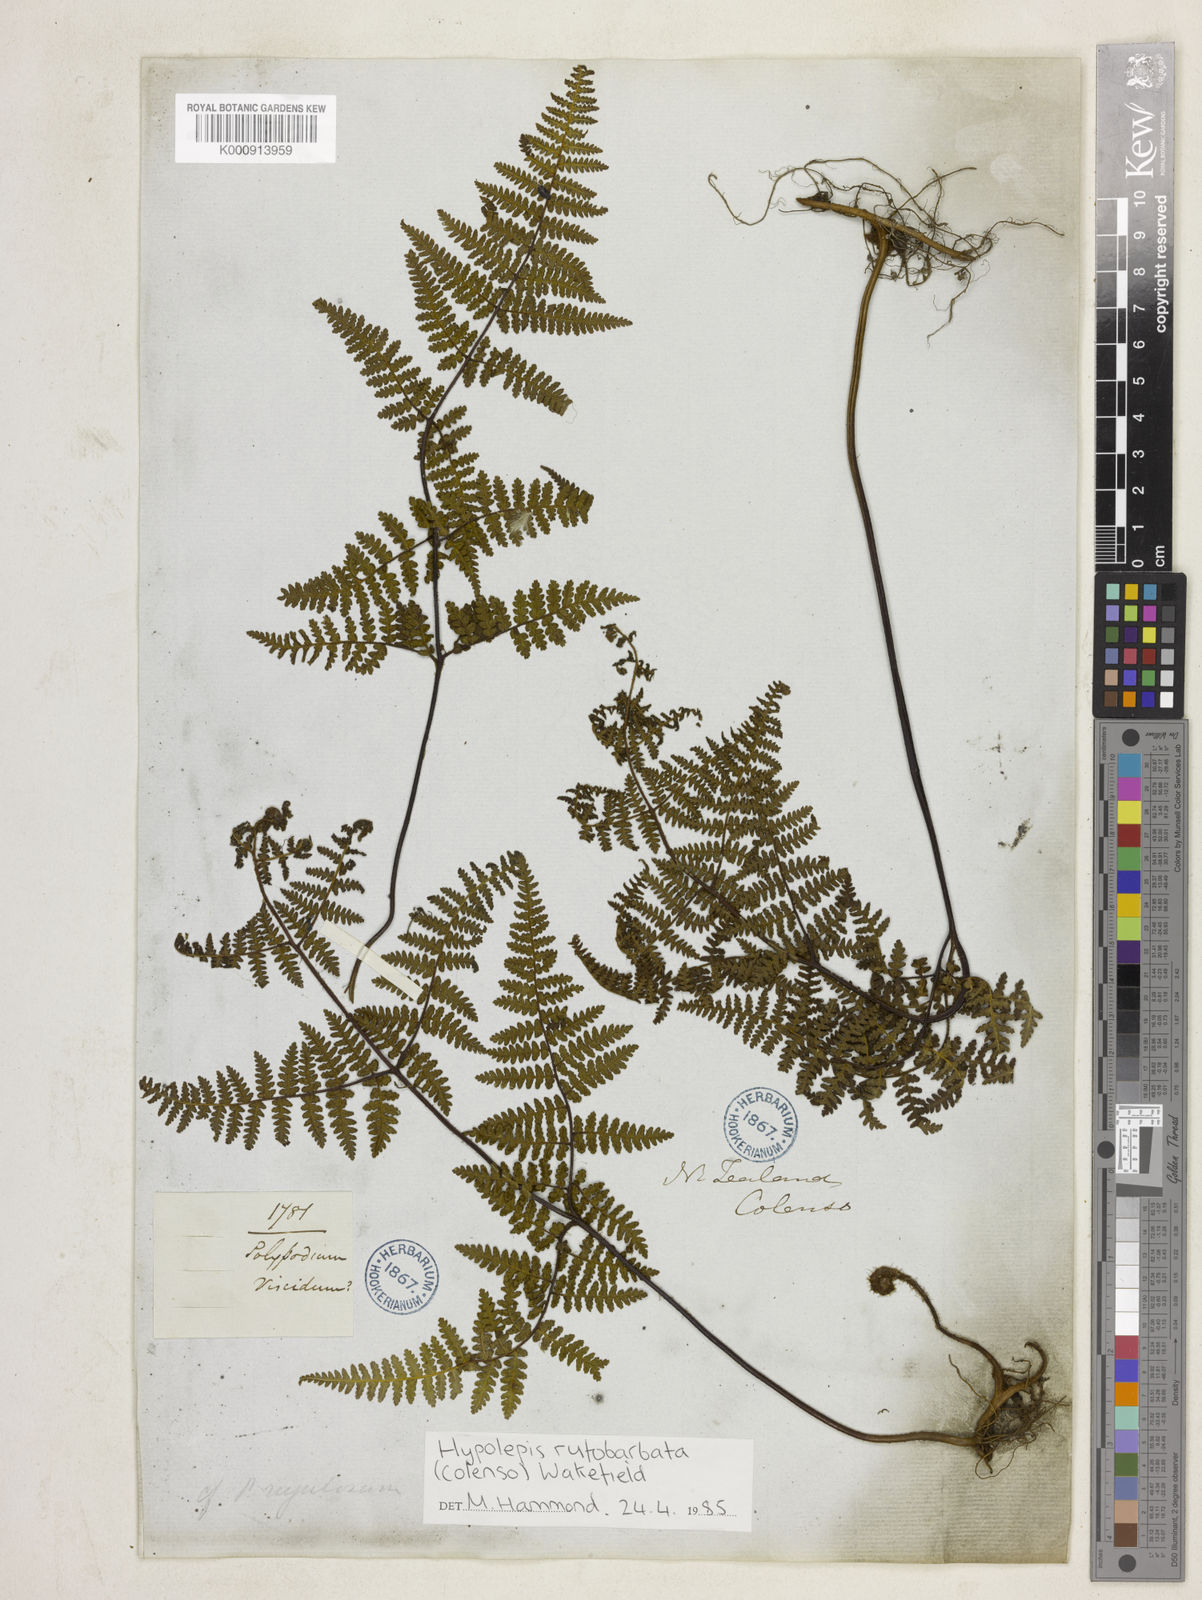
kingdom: Plantae
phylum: Tracheophyta
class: Polypodiopsida
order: Polypodiales
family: Dennstaedtiaceae
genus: Hypolepis
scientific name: Hypolepis rugosula
